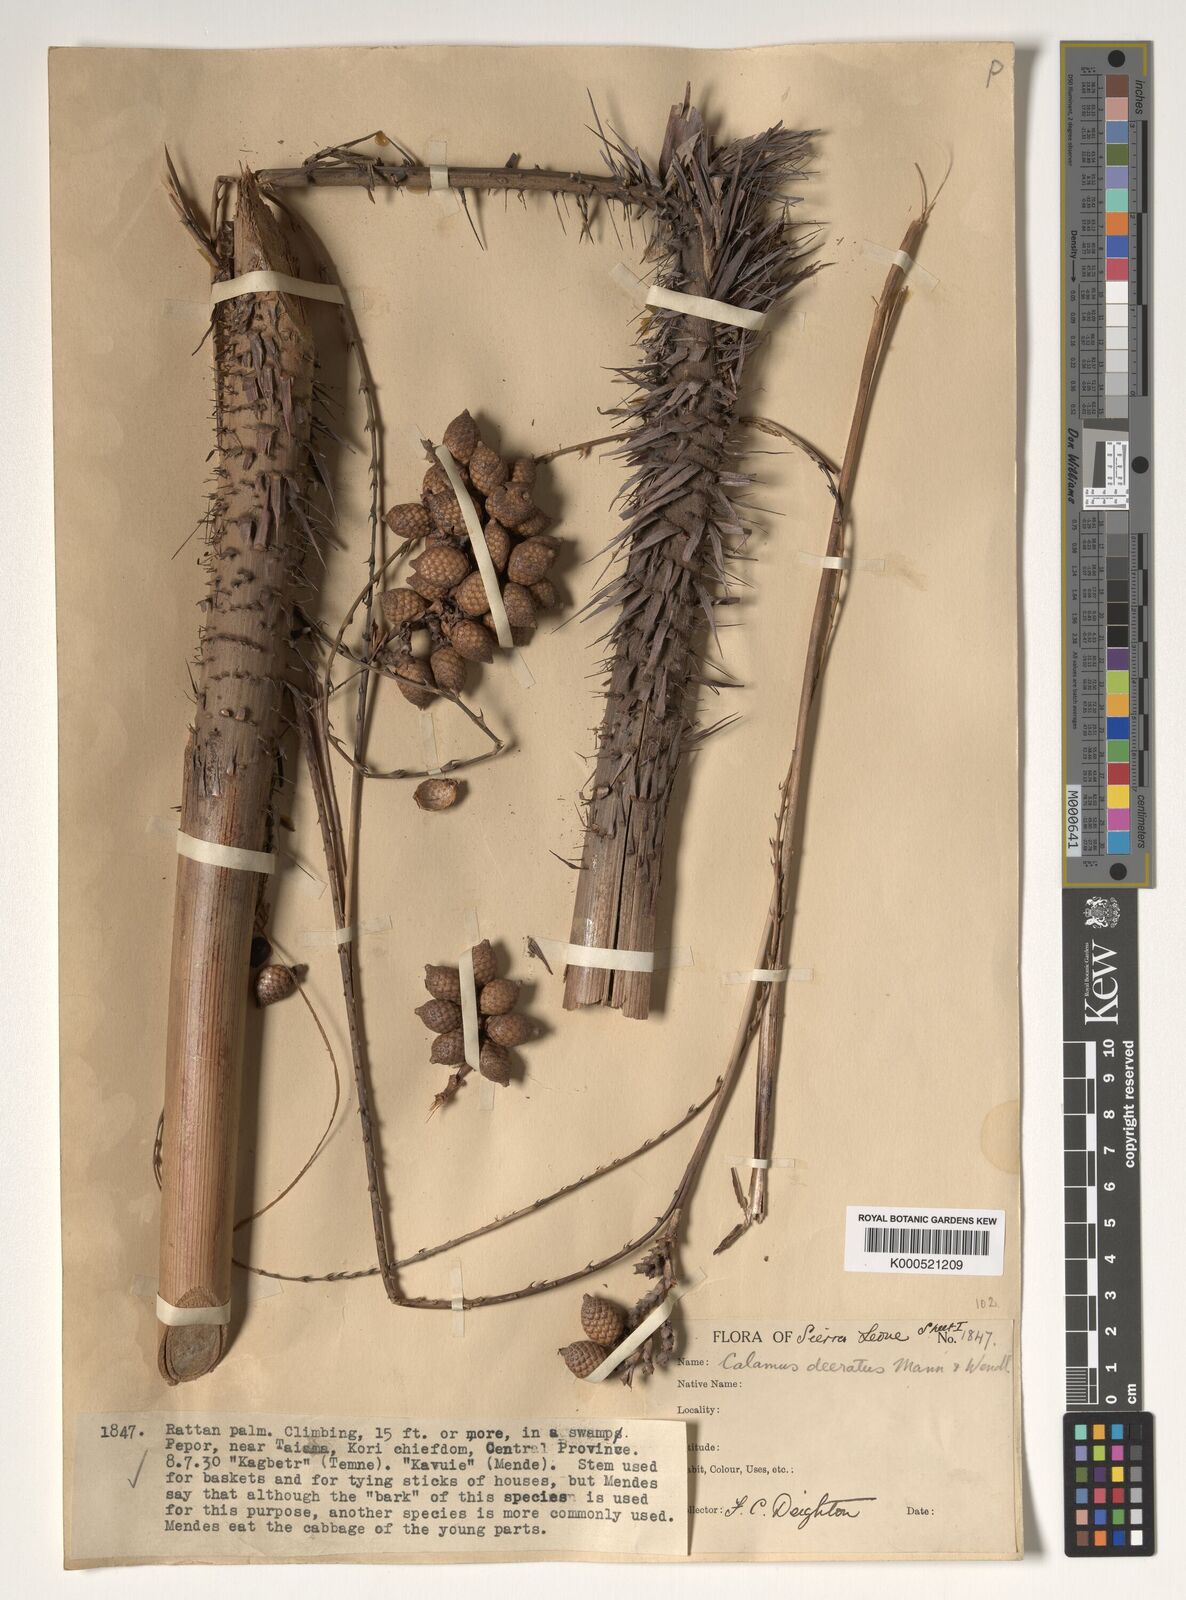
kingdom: Plantae
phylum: Tracheophyta
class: Liliopsida
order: Arecales
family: Arecaceae
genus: Calamus
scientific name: Calamus deerratus
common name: Rattan
